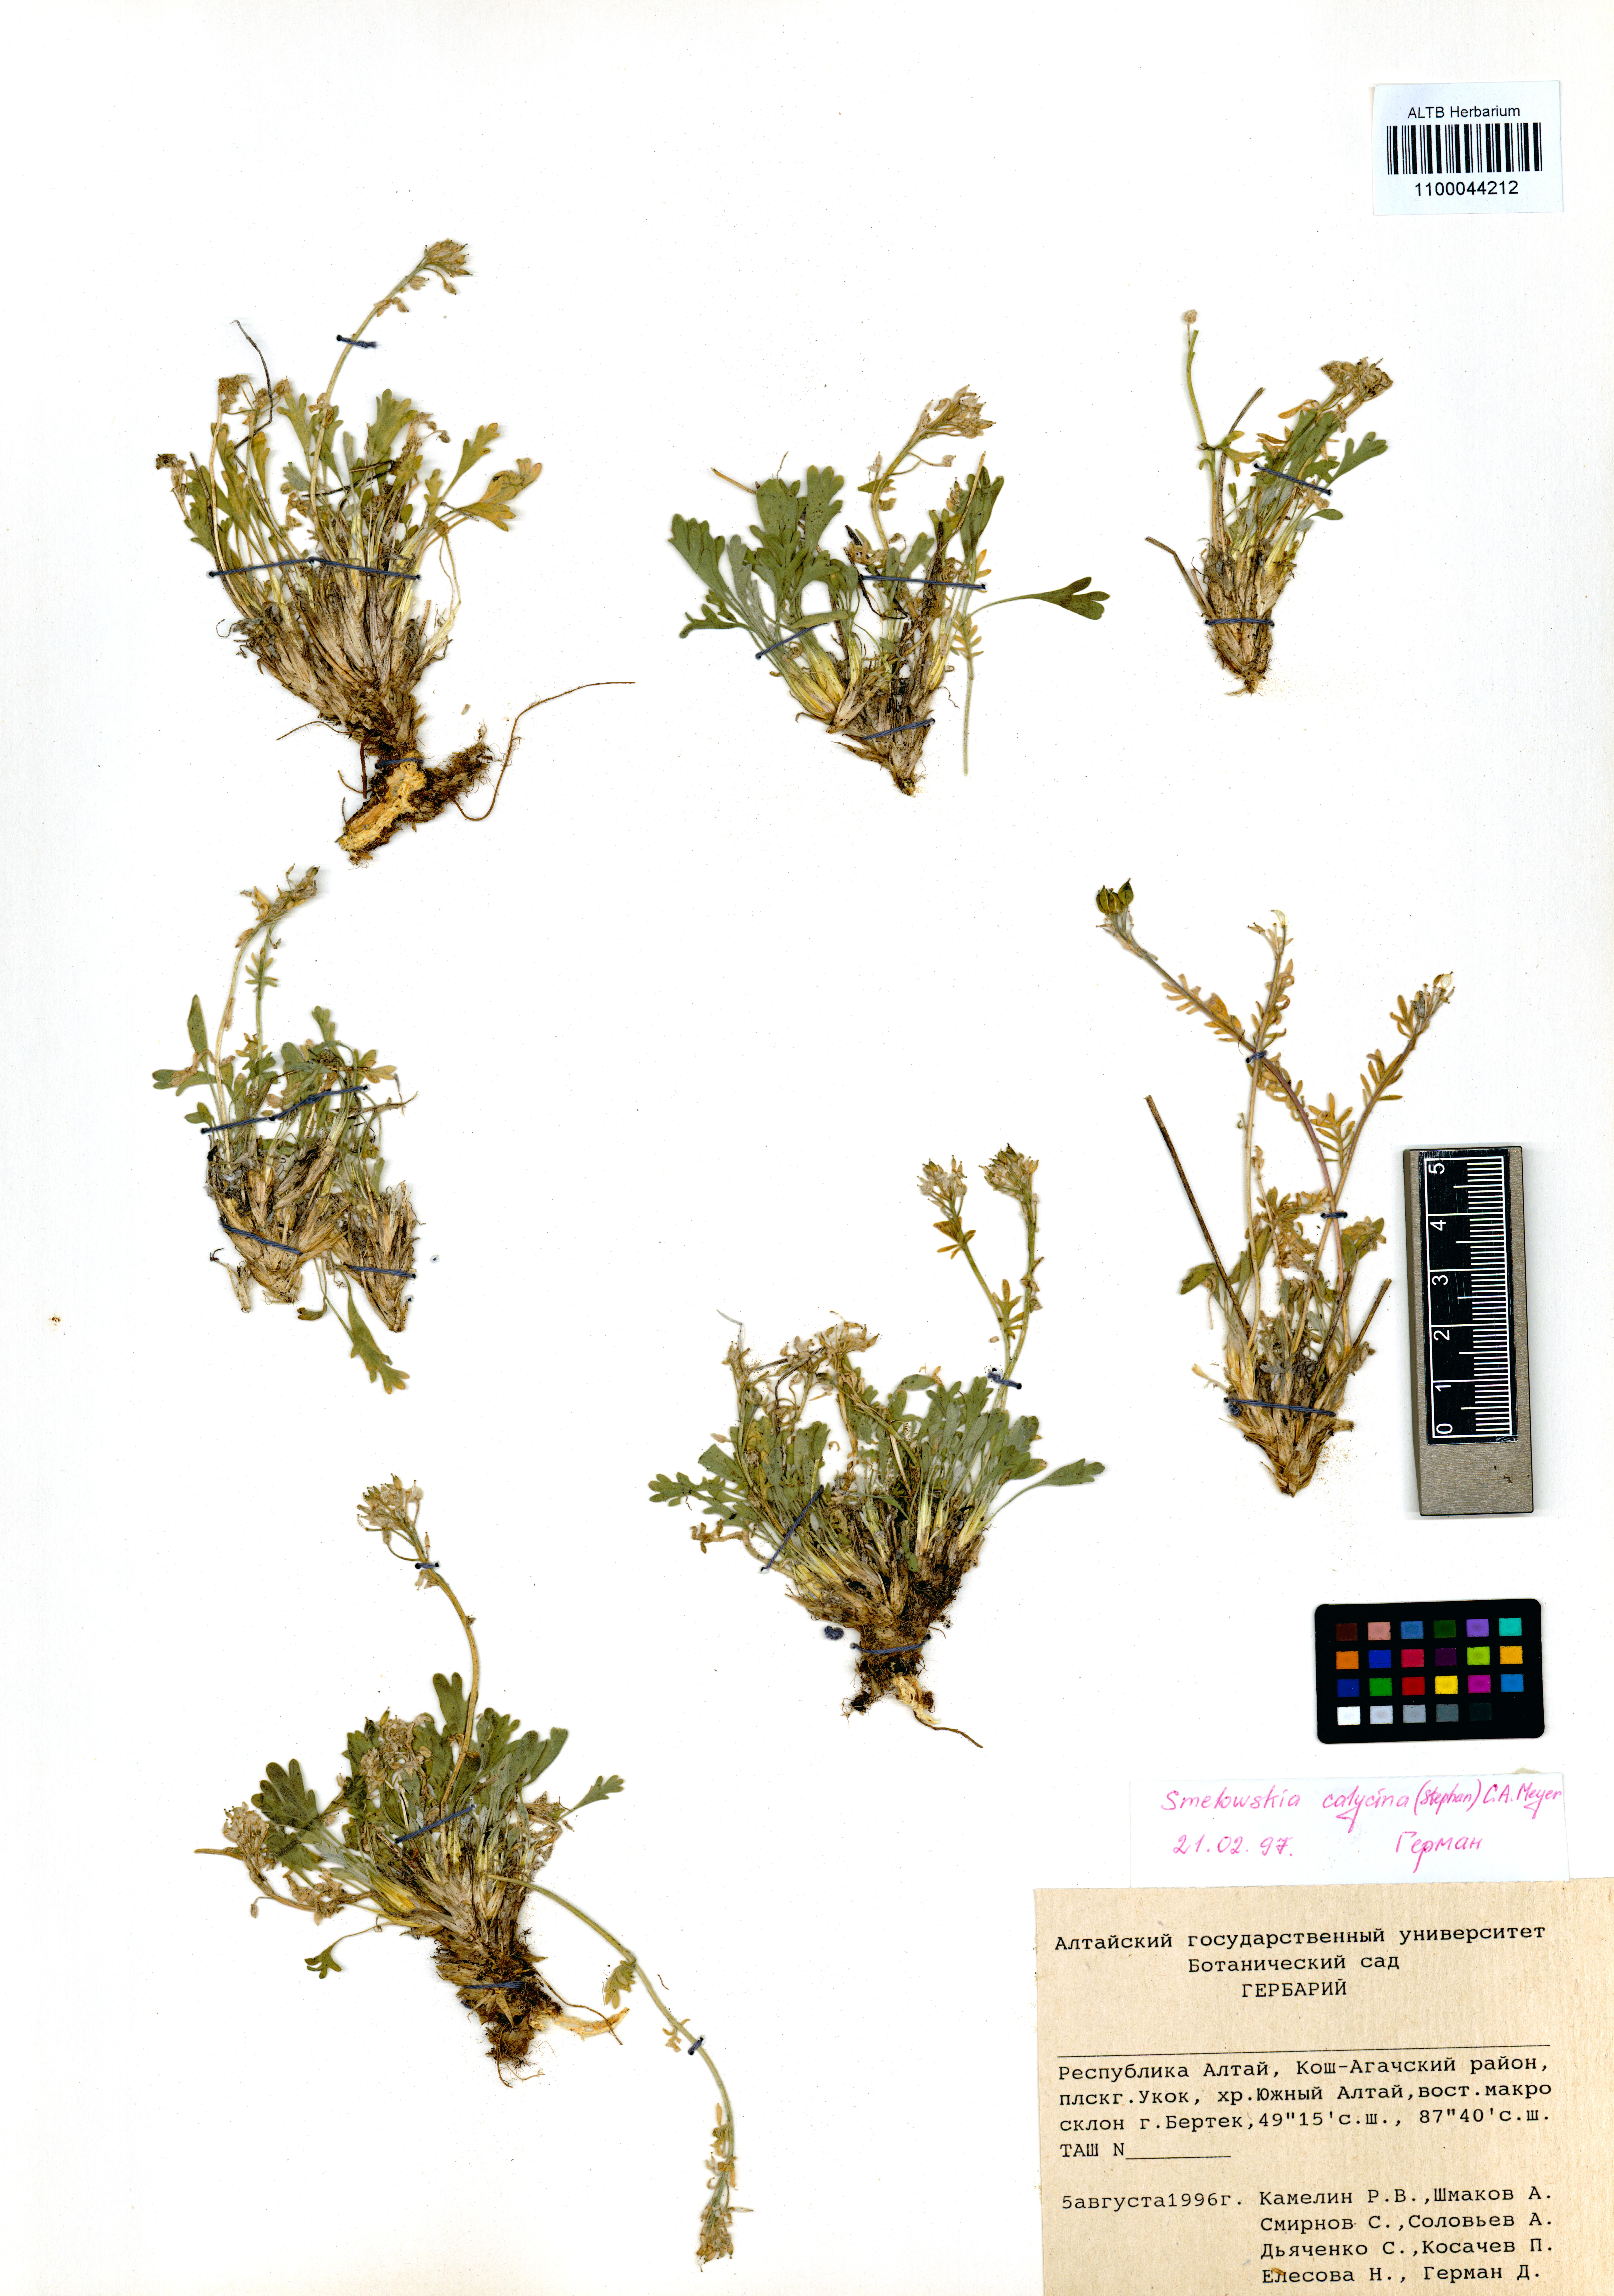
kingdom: Plantae
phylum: Tracheophyta
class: Magnoliopsida
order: Brassicales
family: Brassicaceae
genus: Smelowskia
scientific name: Smelowskia calycina
